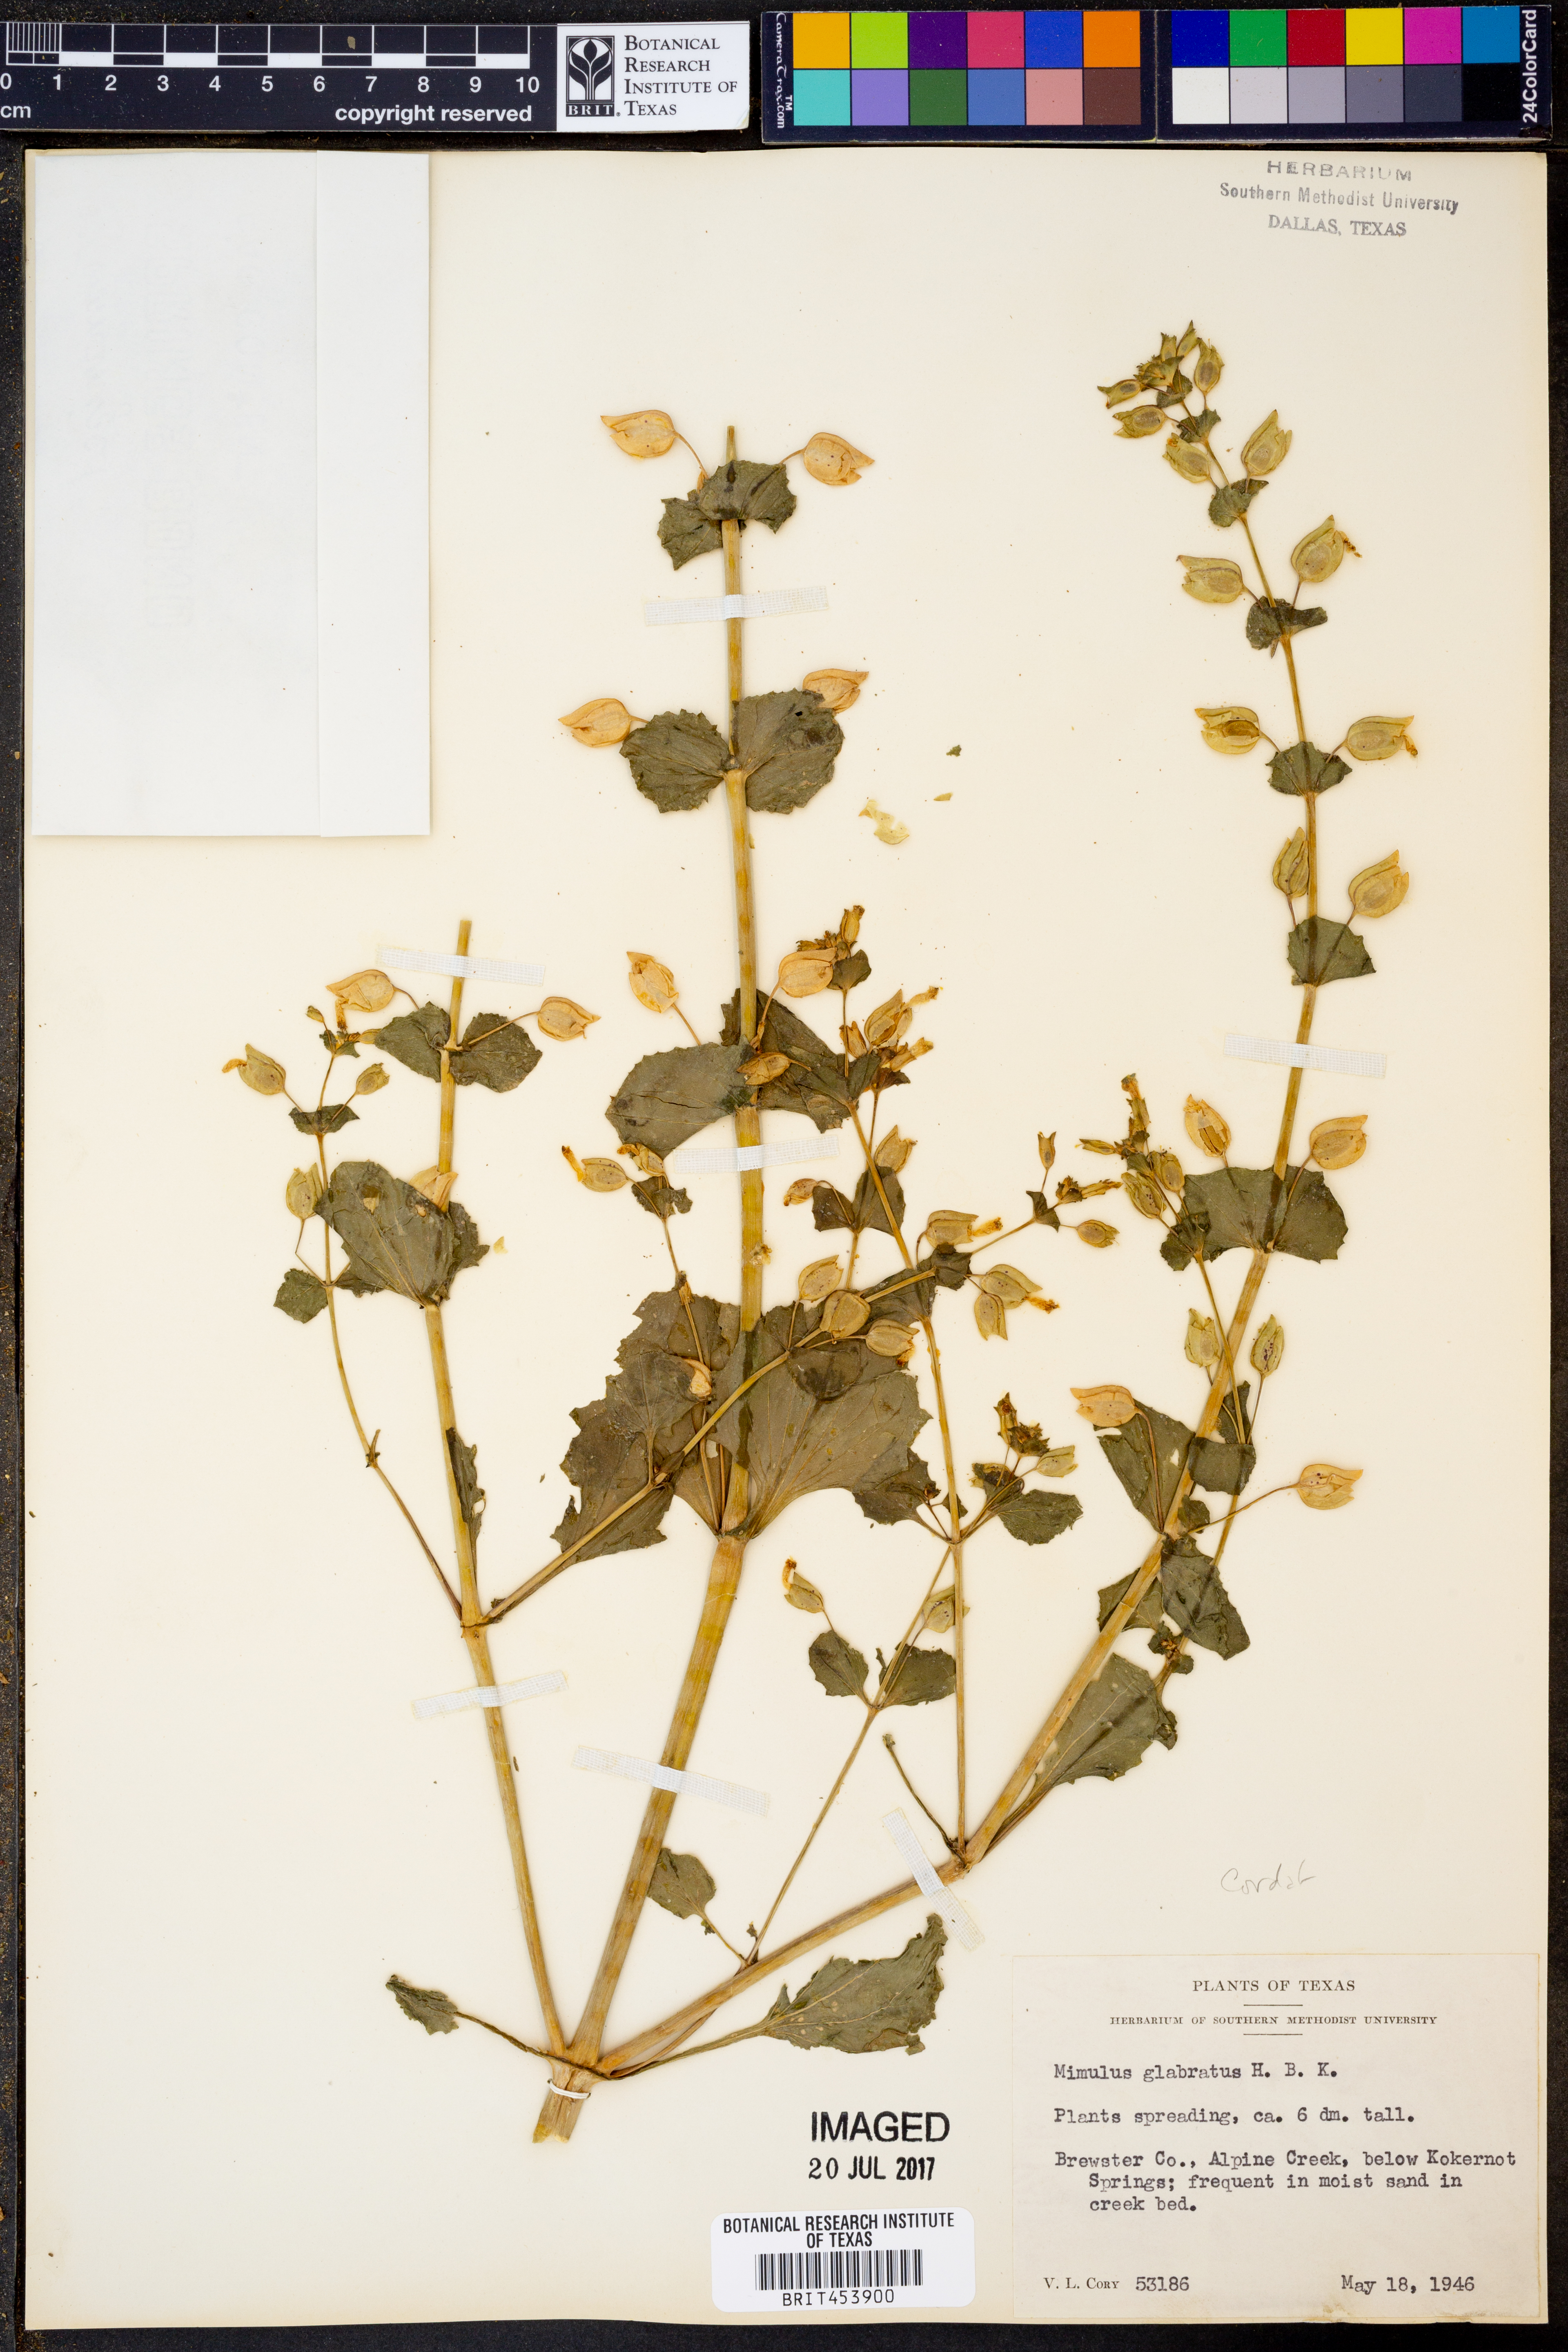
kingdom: Plantae
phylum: Tracheophyta
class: Magnoliopsida
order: Lamiales
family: Phrymaceae
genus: Erythranthe
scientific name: Erythranthe glabrata
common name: Round-leaved monkeyflower
